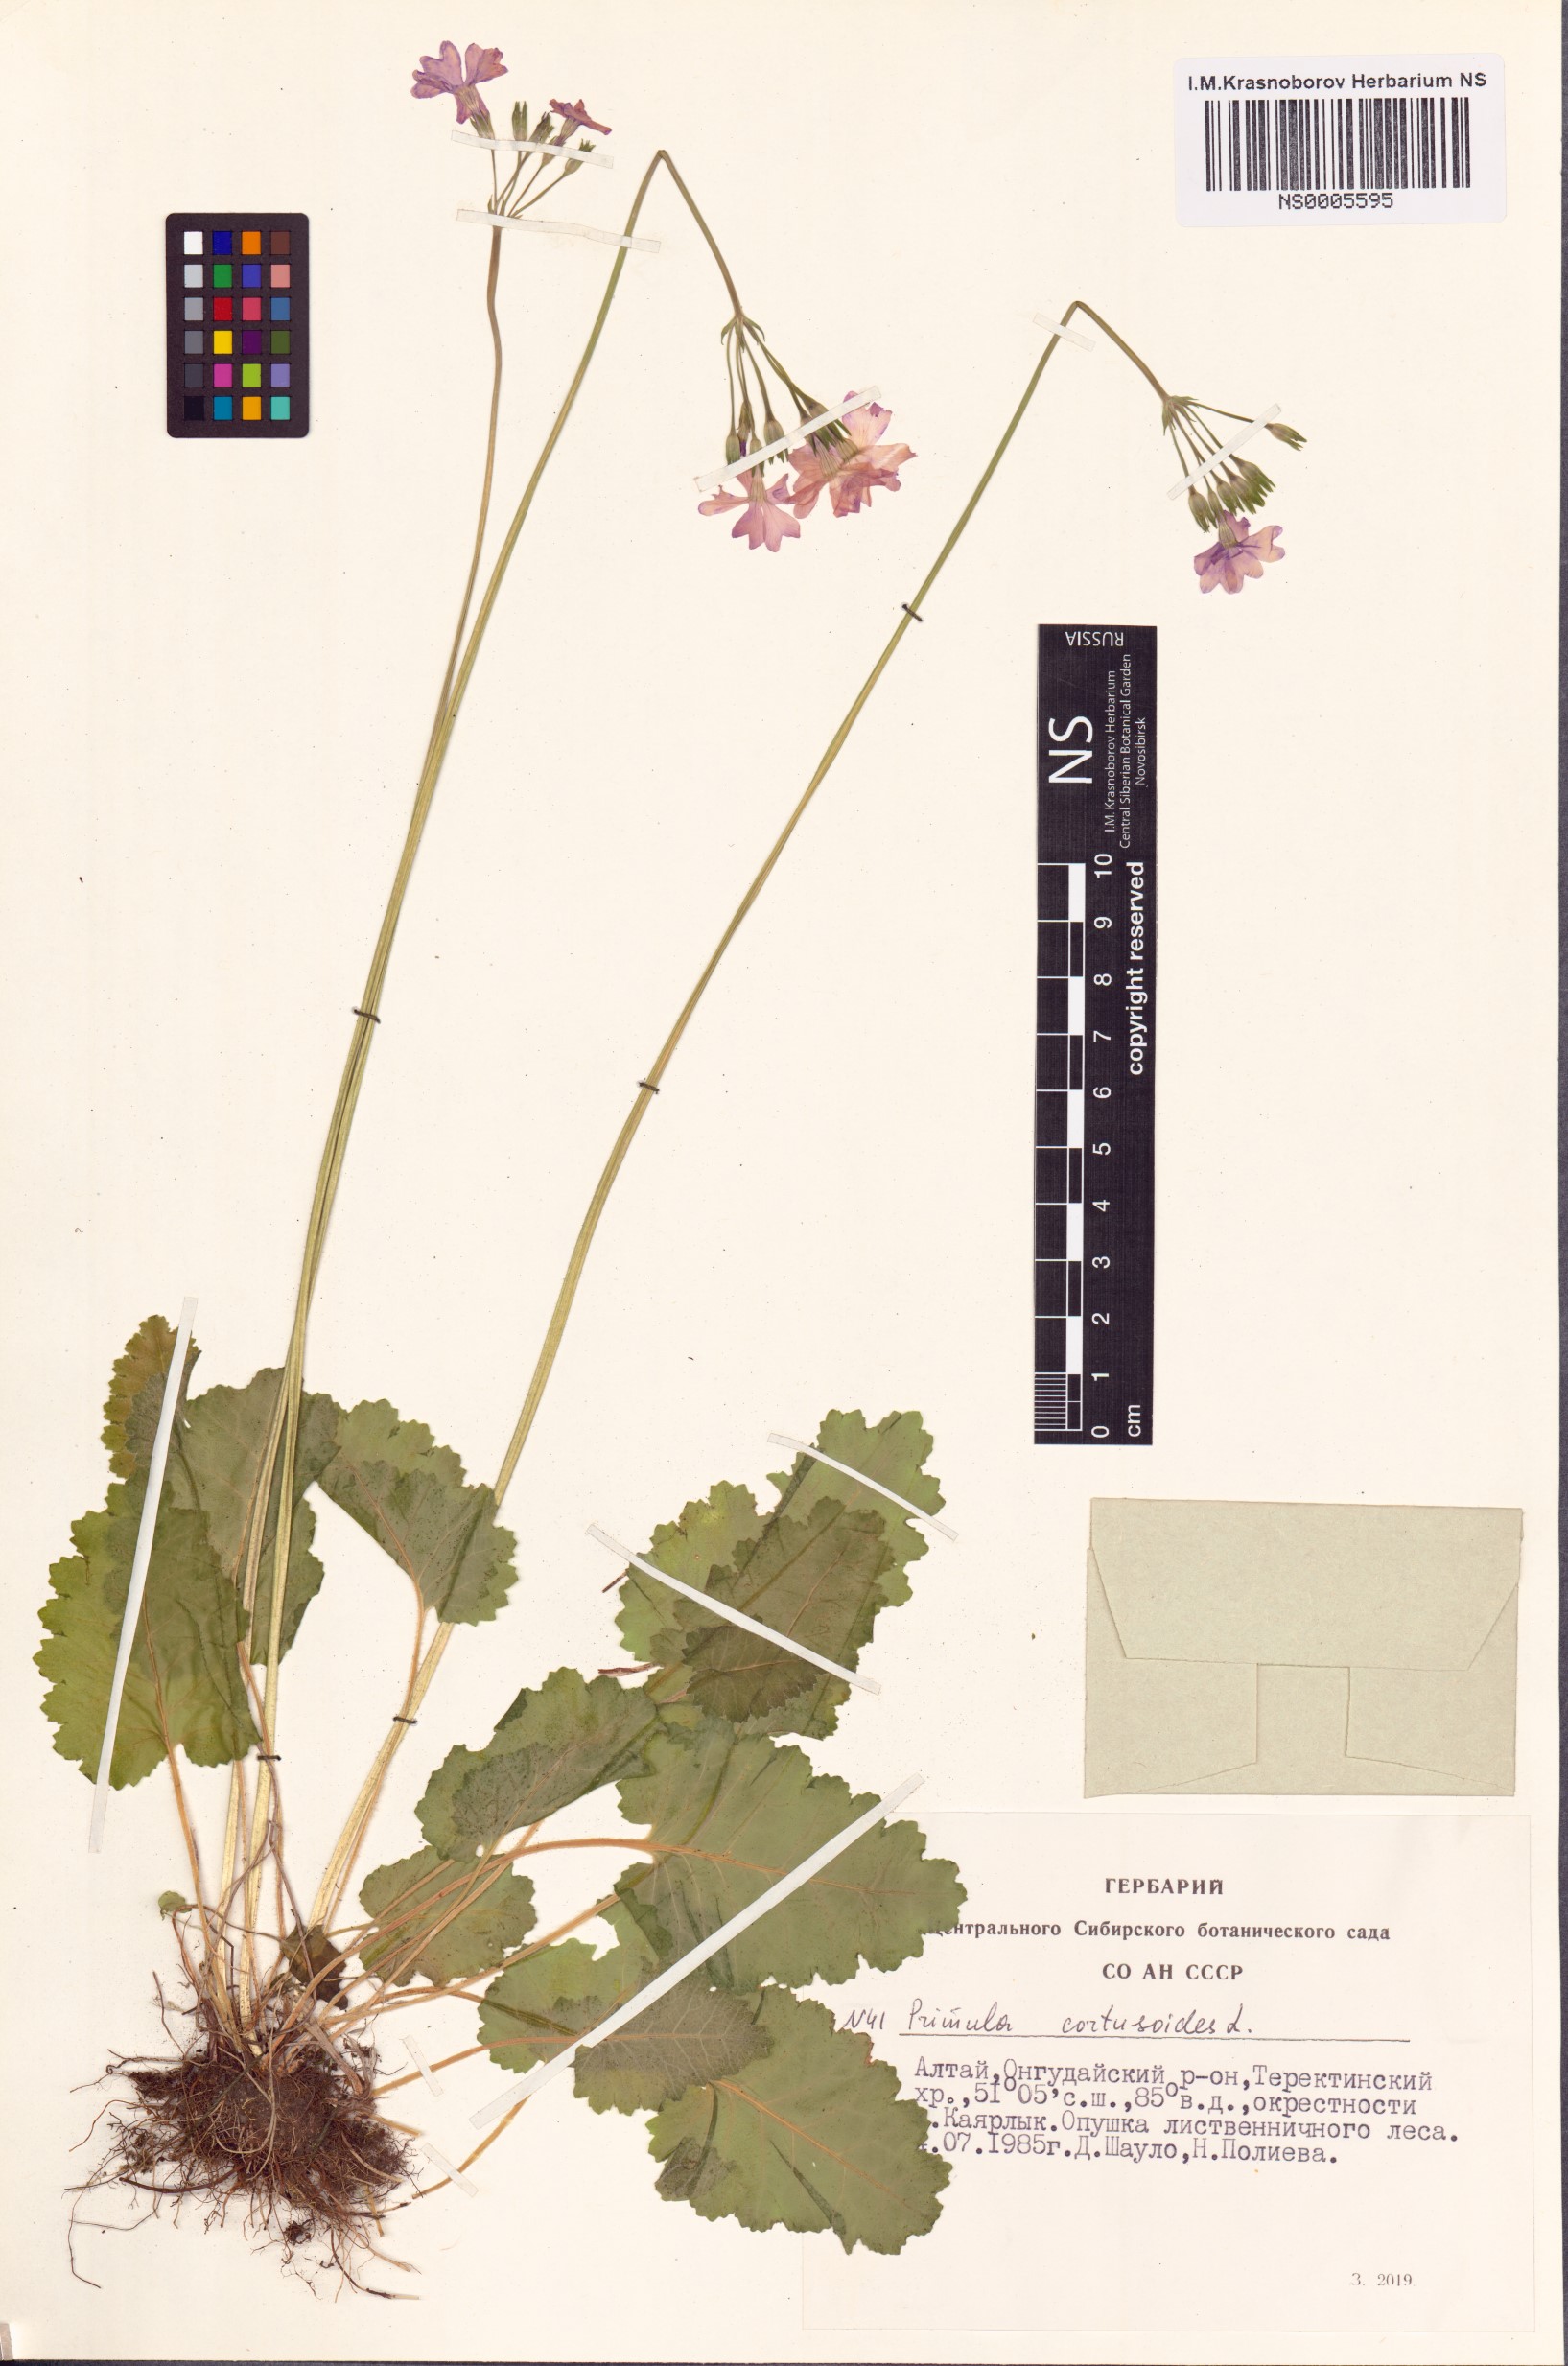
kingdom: Plantae
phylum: Tracheophyta
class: Magnoliopsida
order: Ericales
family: Primulaceae
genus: Primula
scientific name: Primula cortusoides
